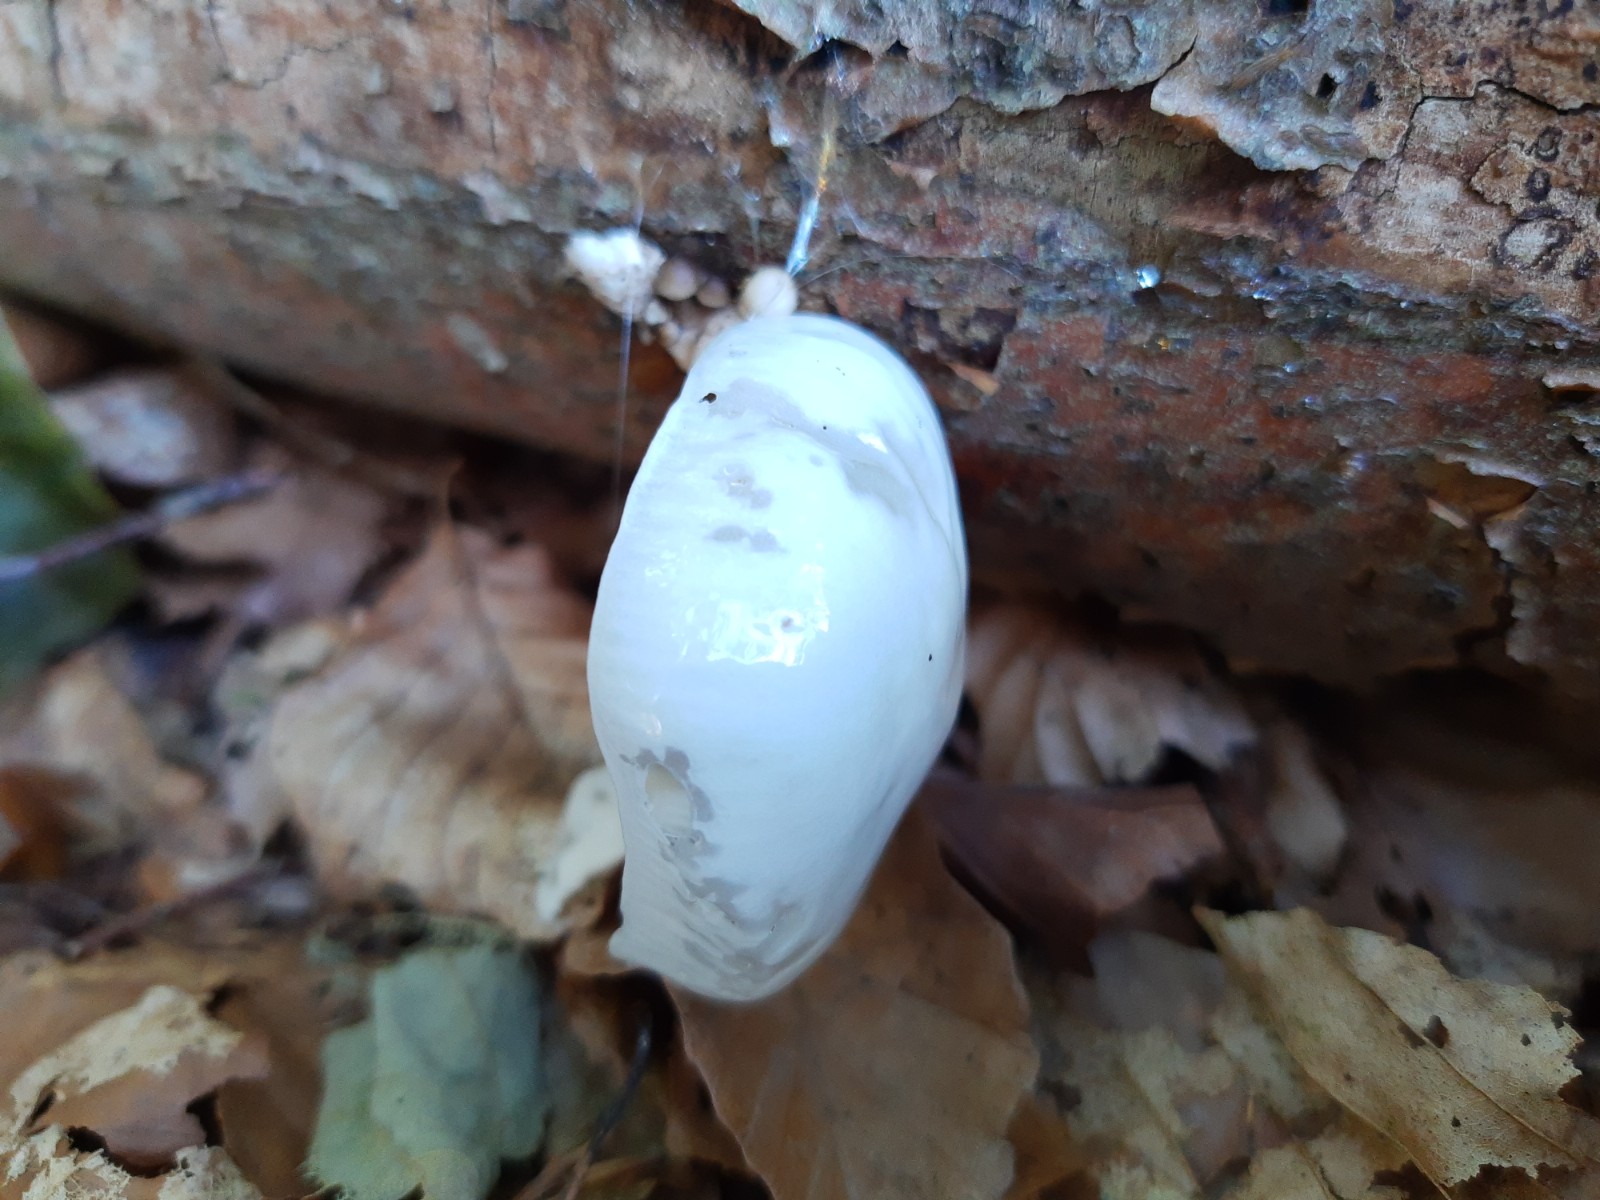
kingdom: Fungi
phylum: Basidiomycota
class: Agaricomycetes
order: Agaricales
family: Physalacriaceae
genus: Mucidula
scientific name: Mucidula mucida
